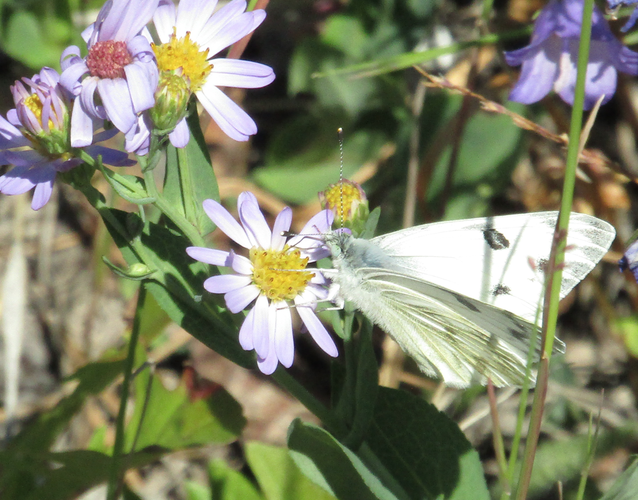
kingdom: Animalia
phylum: Arthropoda
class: Insecta
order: Lepidoptera
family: Pieridae
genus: Pontia
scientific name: Pontia occidentalis
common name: Western White
